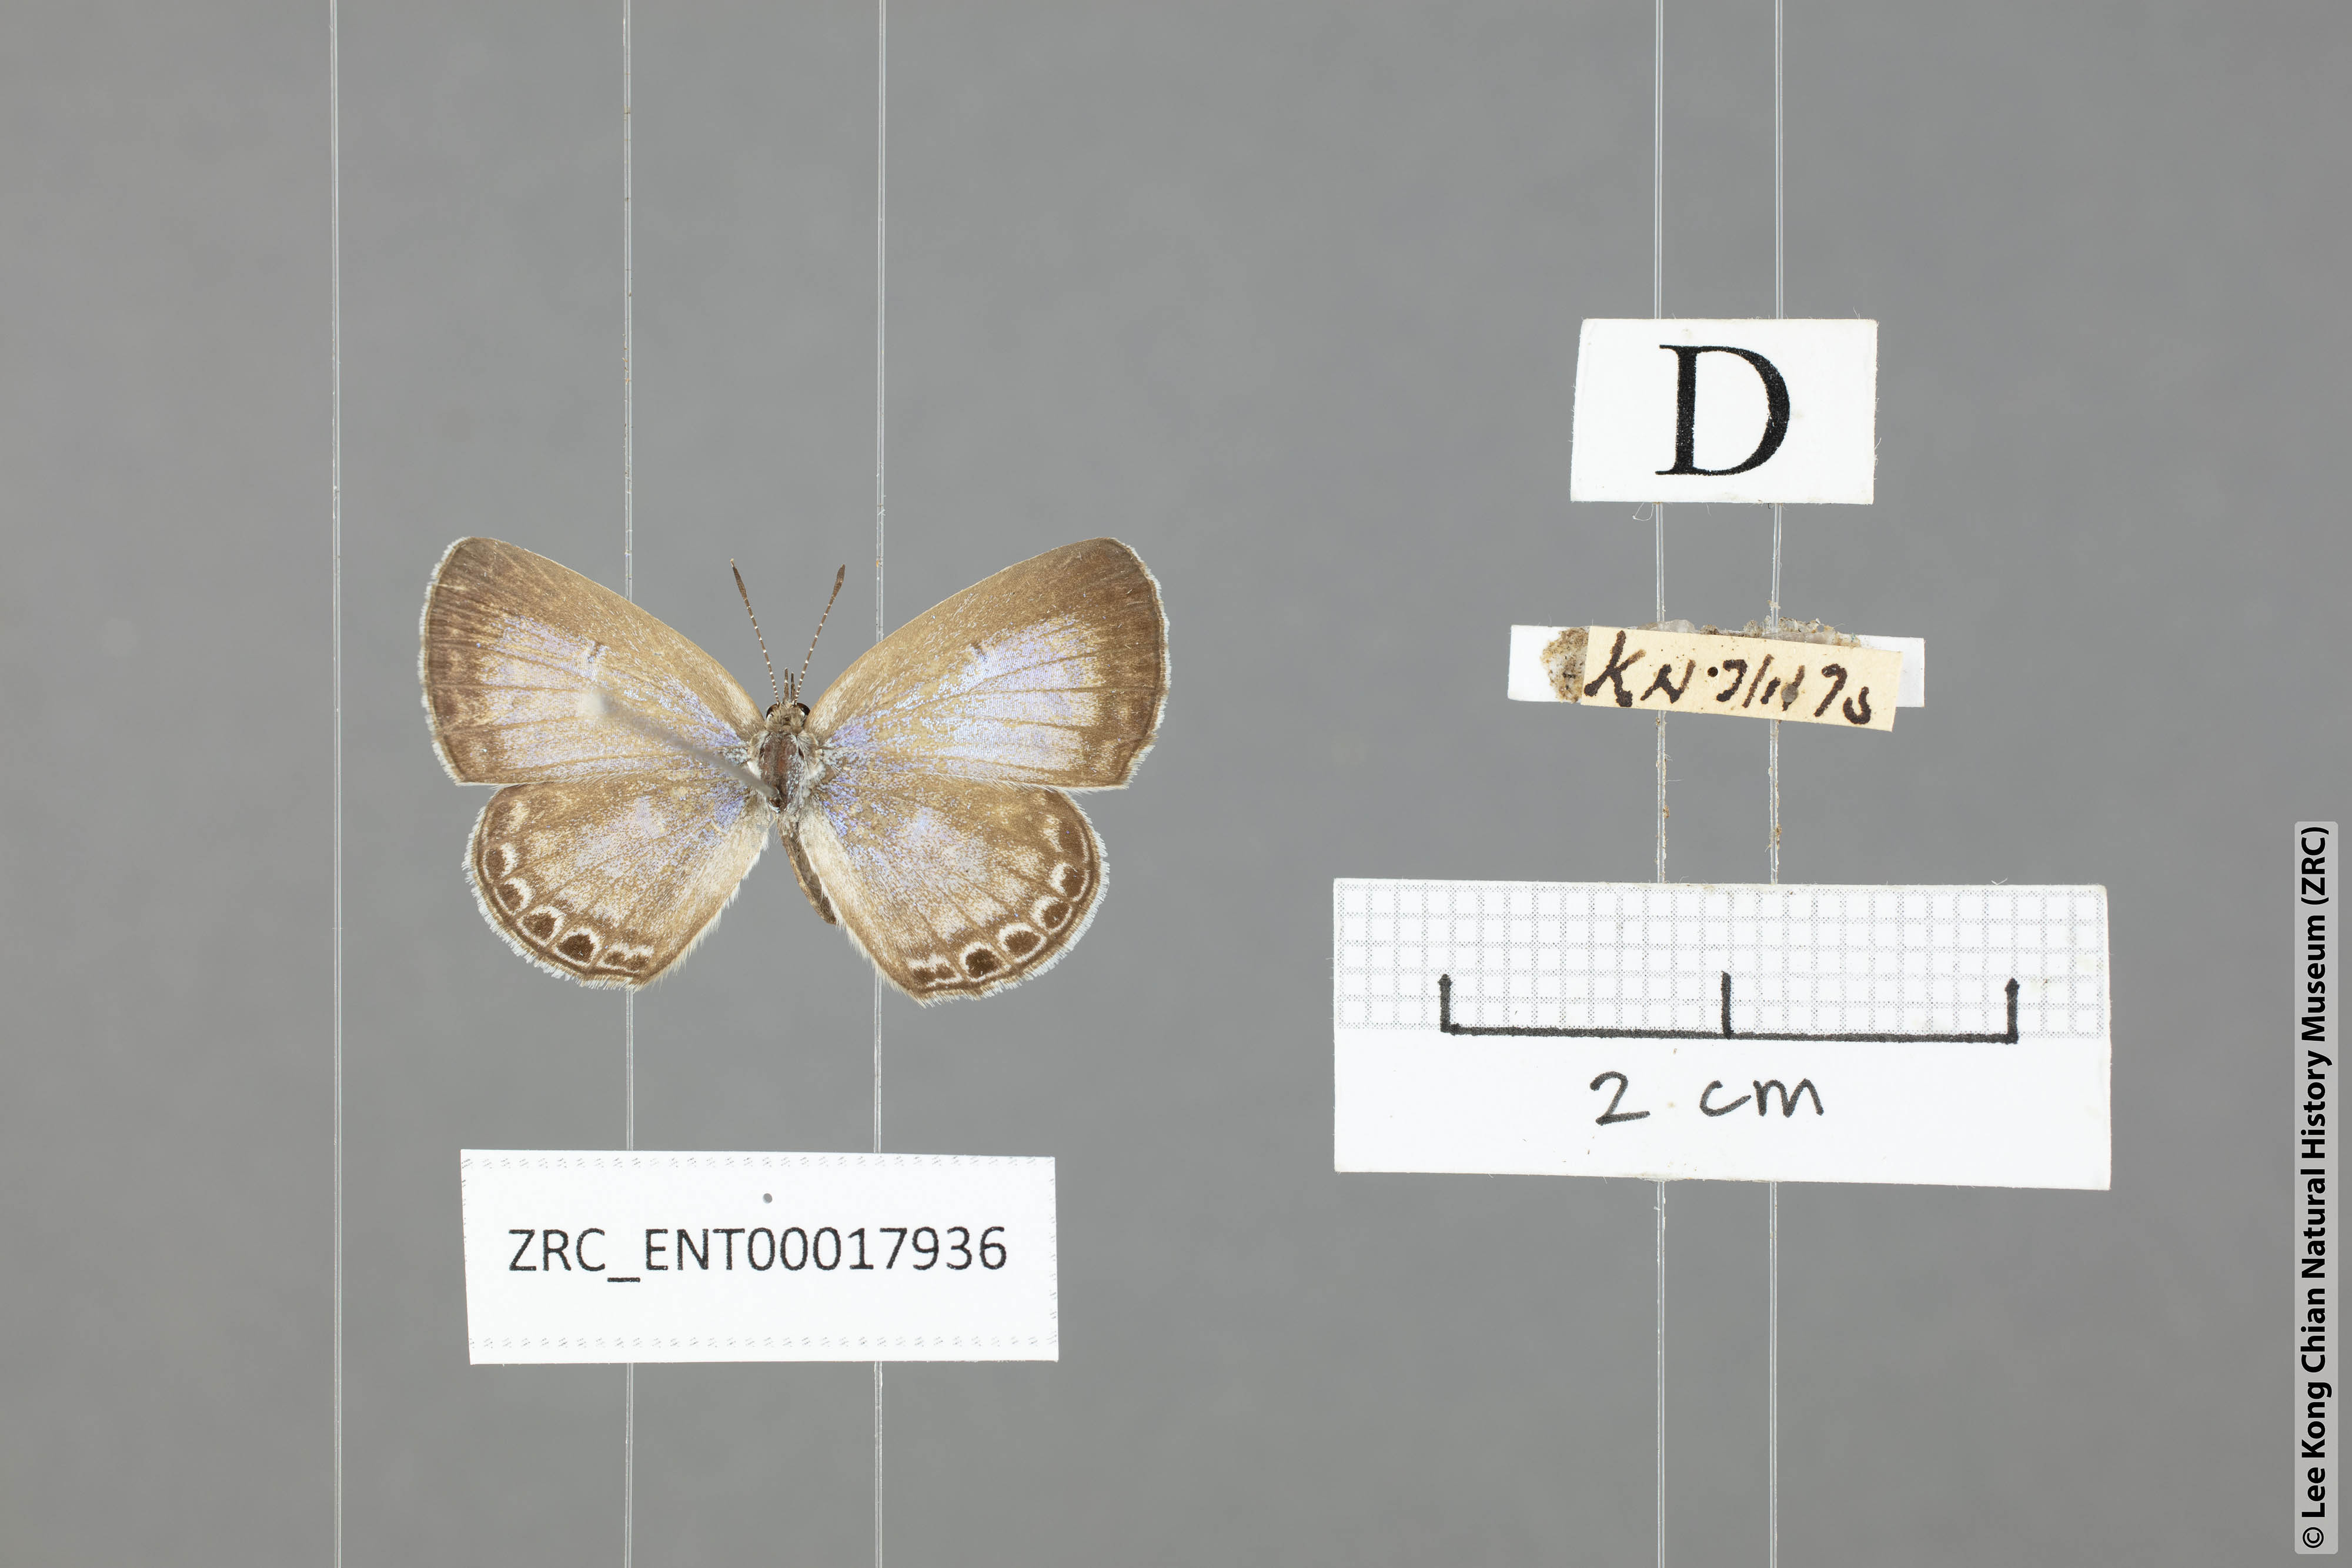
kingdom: Animalia
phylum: Arthropoda
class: Insecta
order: Lepidoptera
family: Lycaenidae
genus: Chilades
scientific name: Chilades laius
